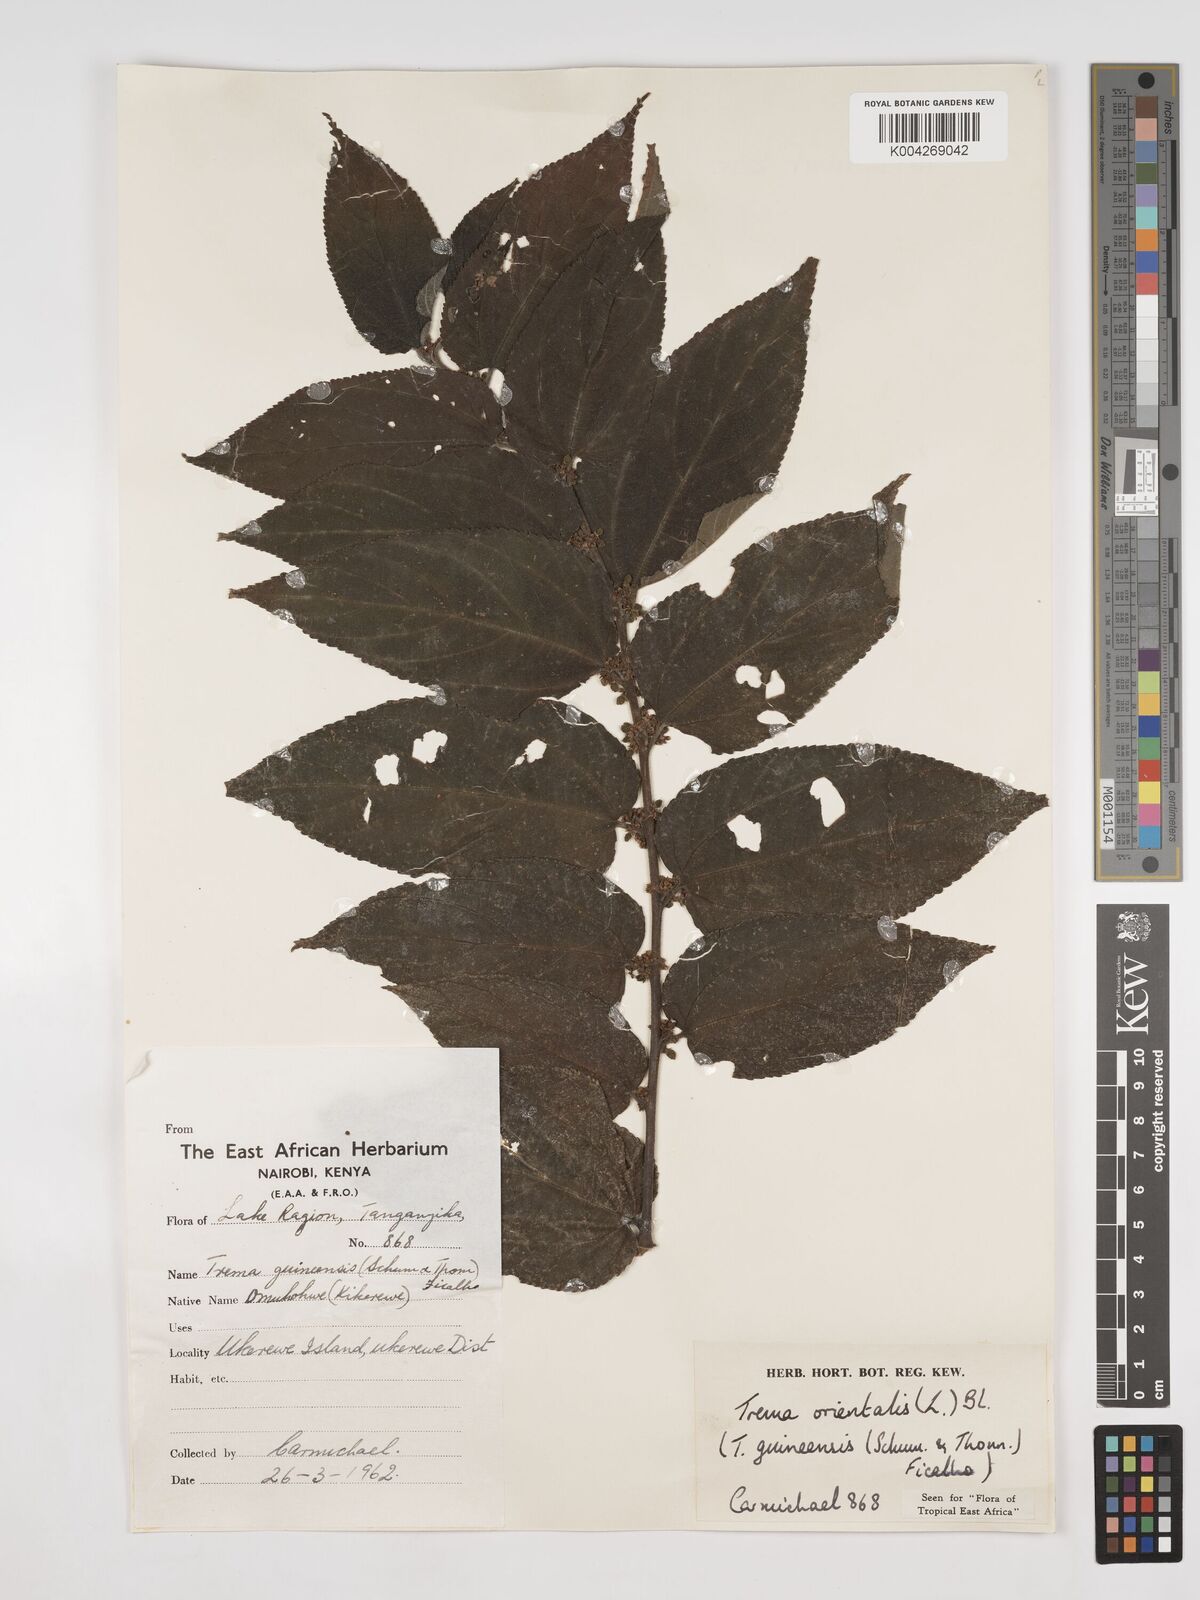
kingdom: Plantae
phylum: Tracheophyta
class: Magnoliopsida
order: Rosales
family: Cannabaceae
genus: Trema
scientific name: Trema orientale
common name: Indian charcoal tree
